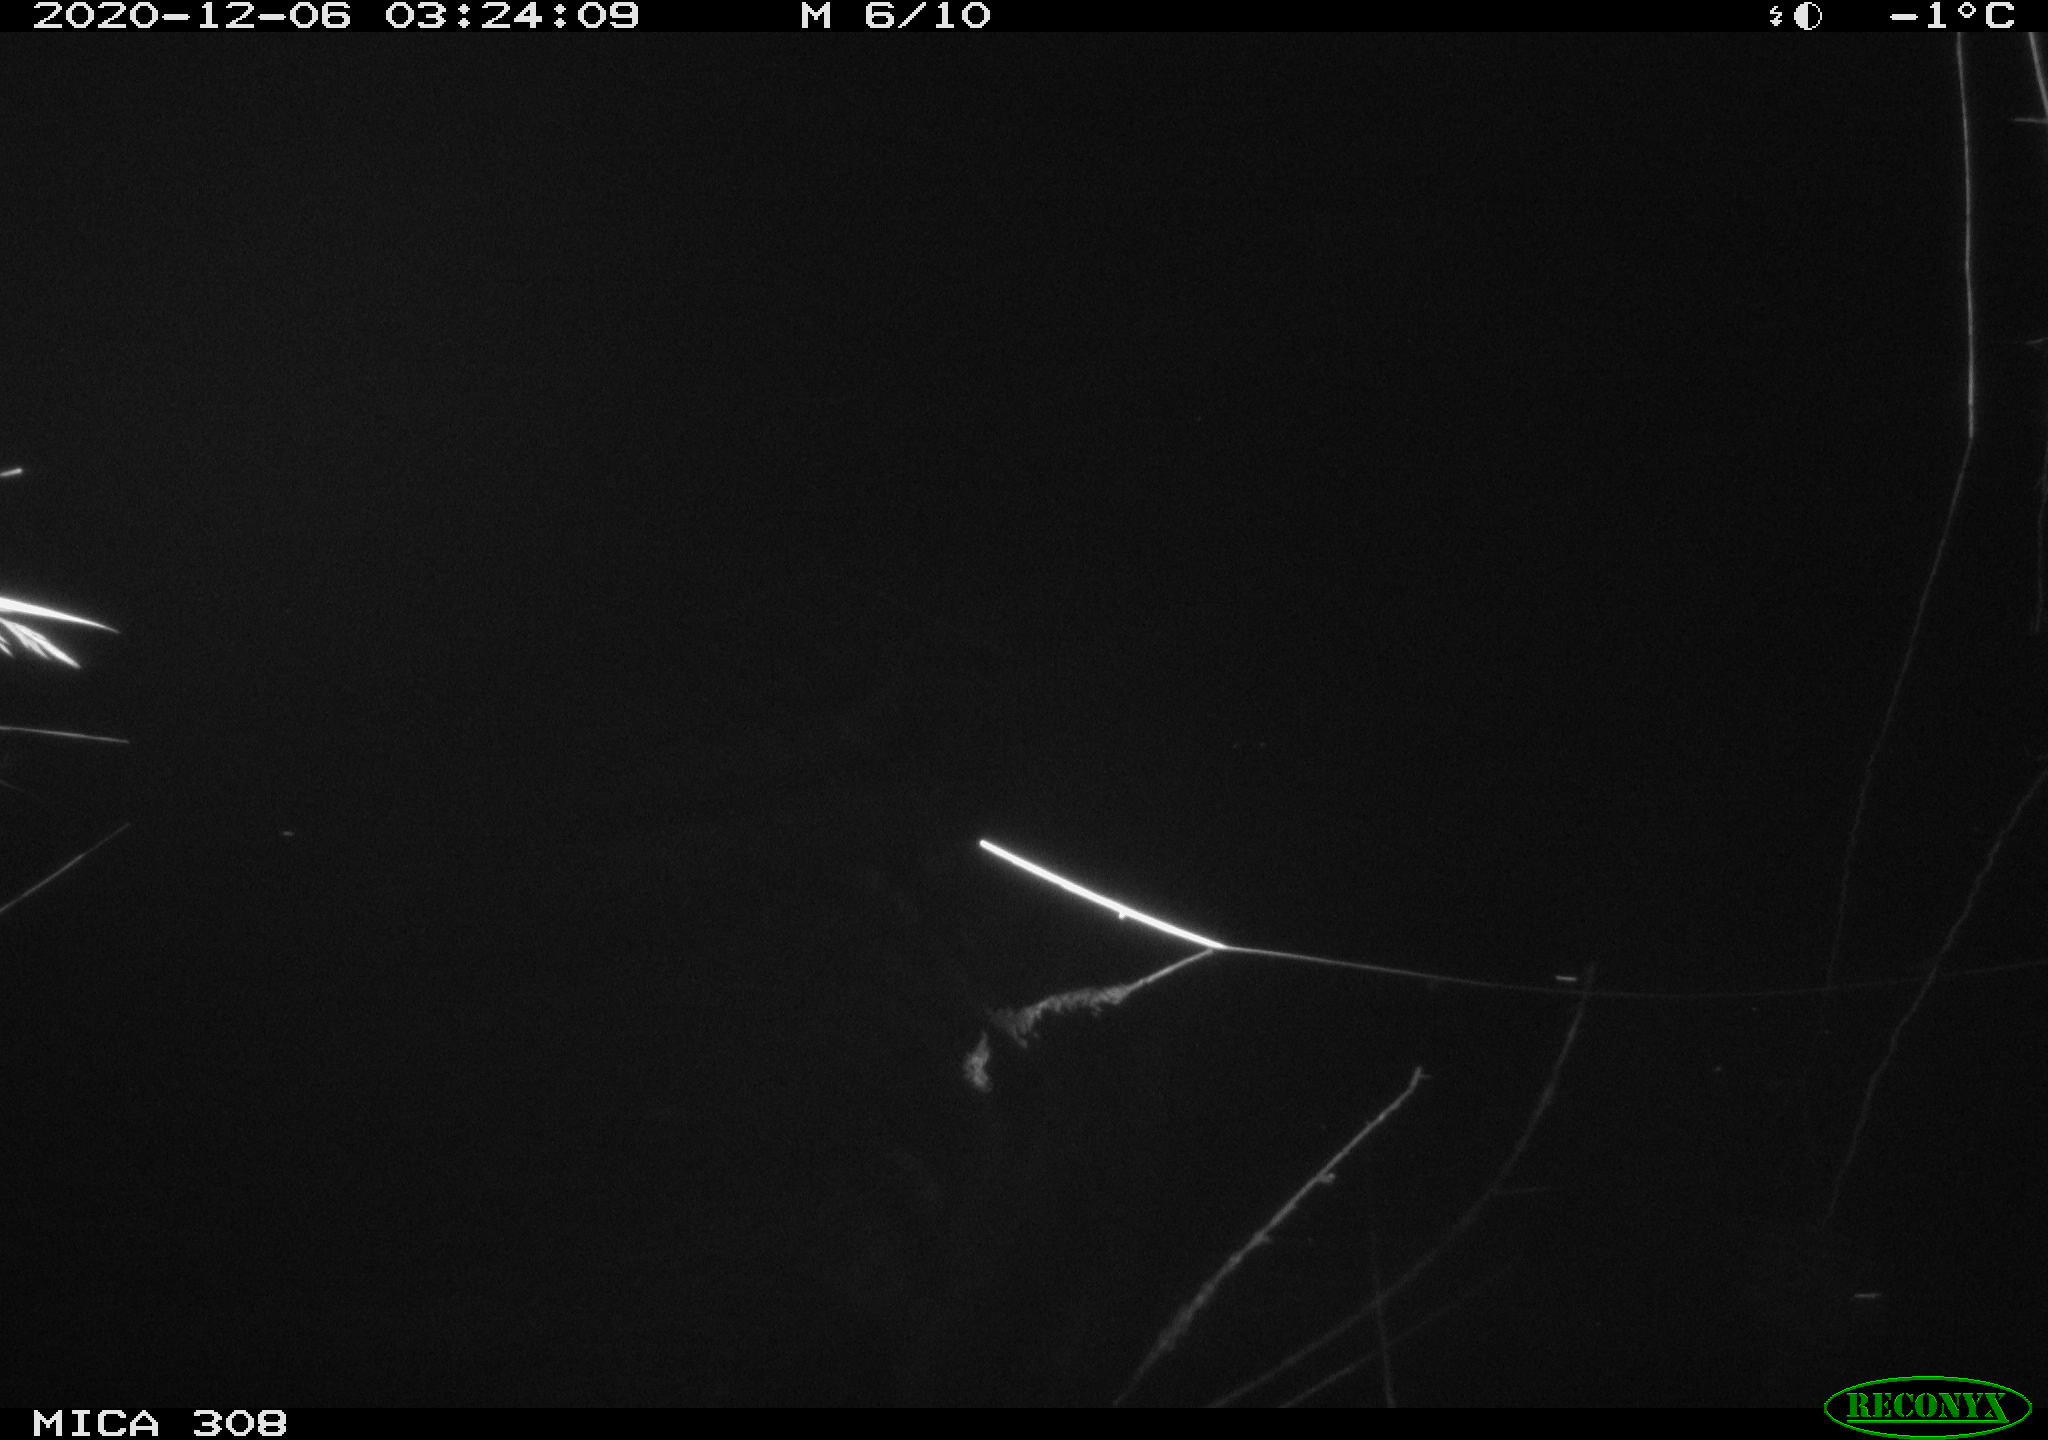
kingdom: Animalia
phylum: Chordata
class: Mammalia
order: Rodentia
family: Cricetidae
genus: Ondatra
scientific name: Ondatra zibethicus
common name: Muskrat
